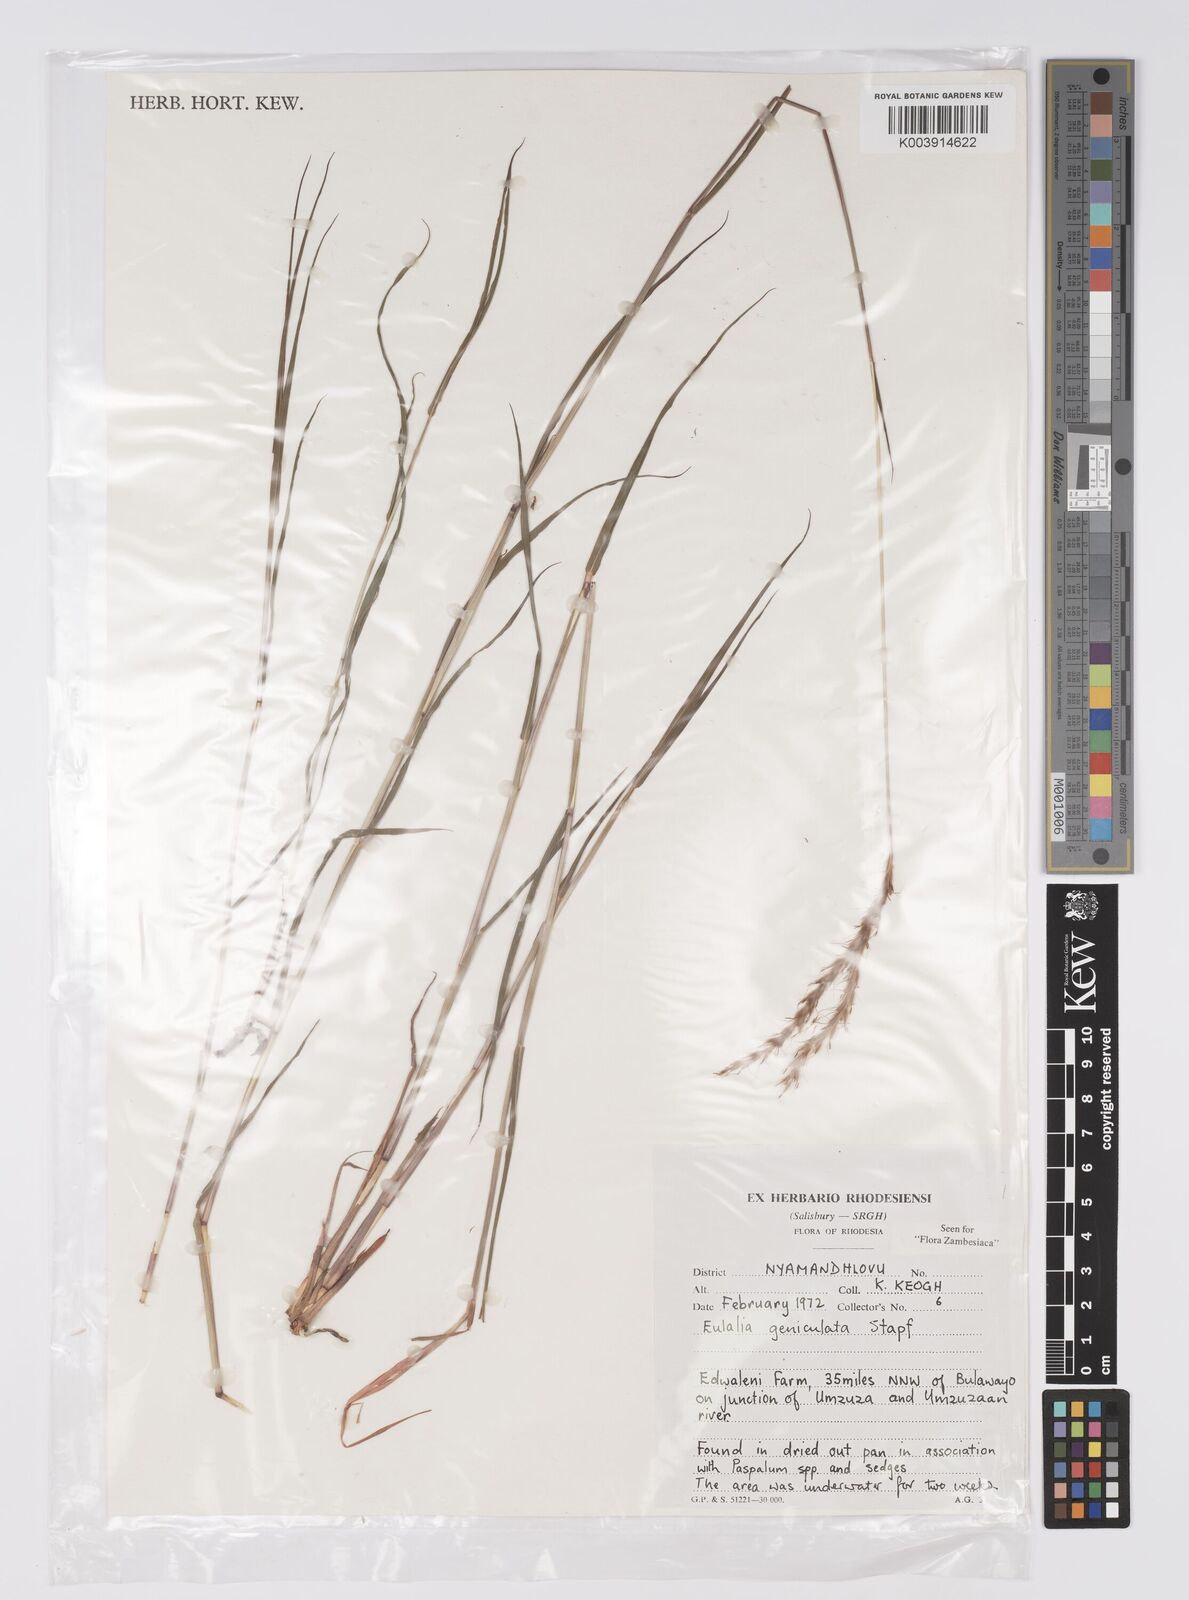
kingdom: Plantae
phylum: Tracheophyta
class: Liliopsida
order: Poales
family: Poaceae
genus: Eulalia
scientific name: Eulalia aurea
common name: Silky browntop
